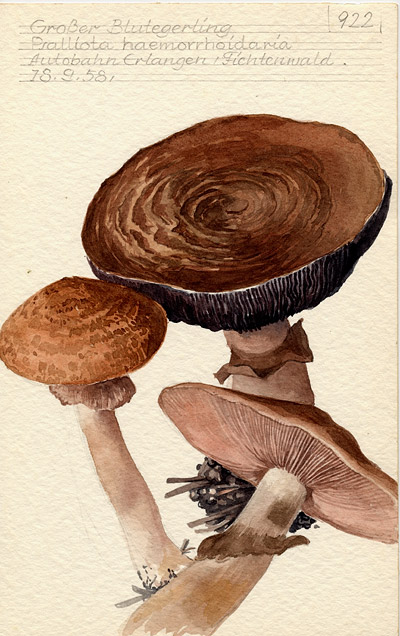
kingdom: Fungi
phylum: Basidiomycota
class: Agaricomycetes
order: Agaricales
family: Agaricaceae
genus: Agaricus
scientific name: Agaricus sylvaticus
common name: Blushing wood mushroom
